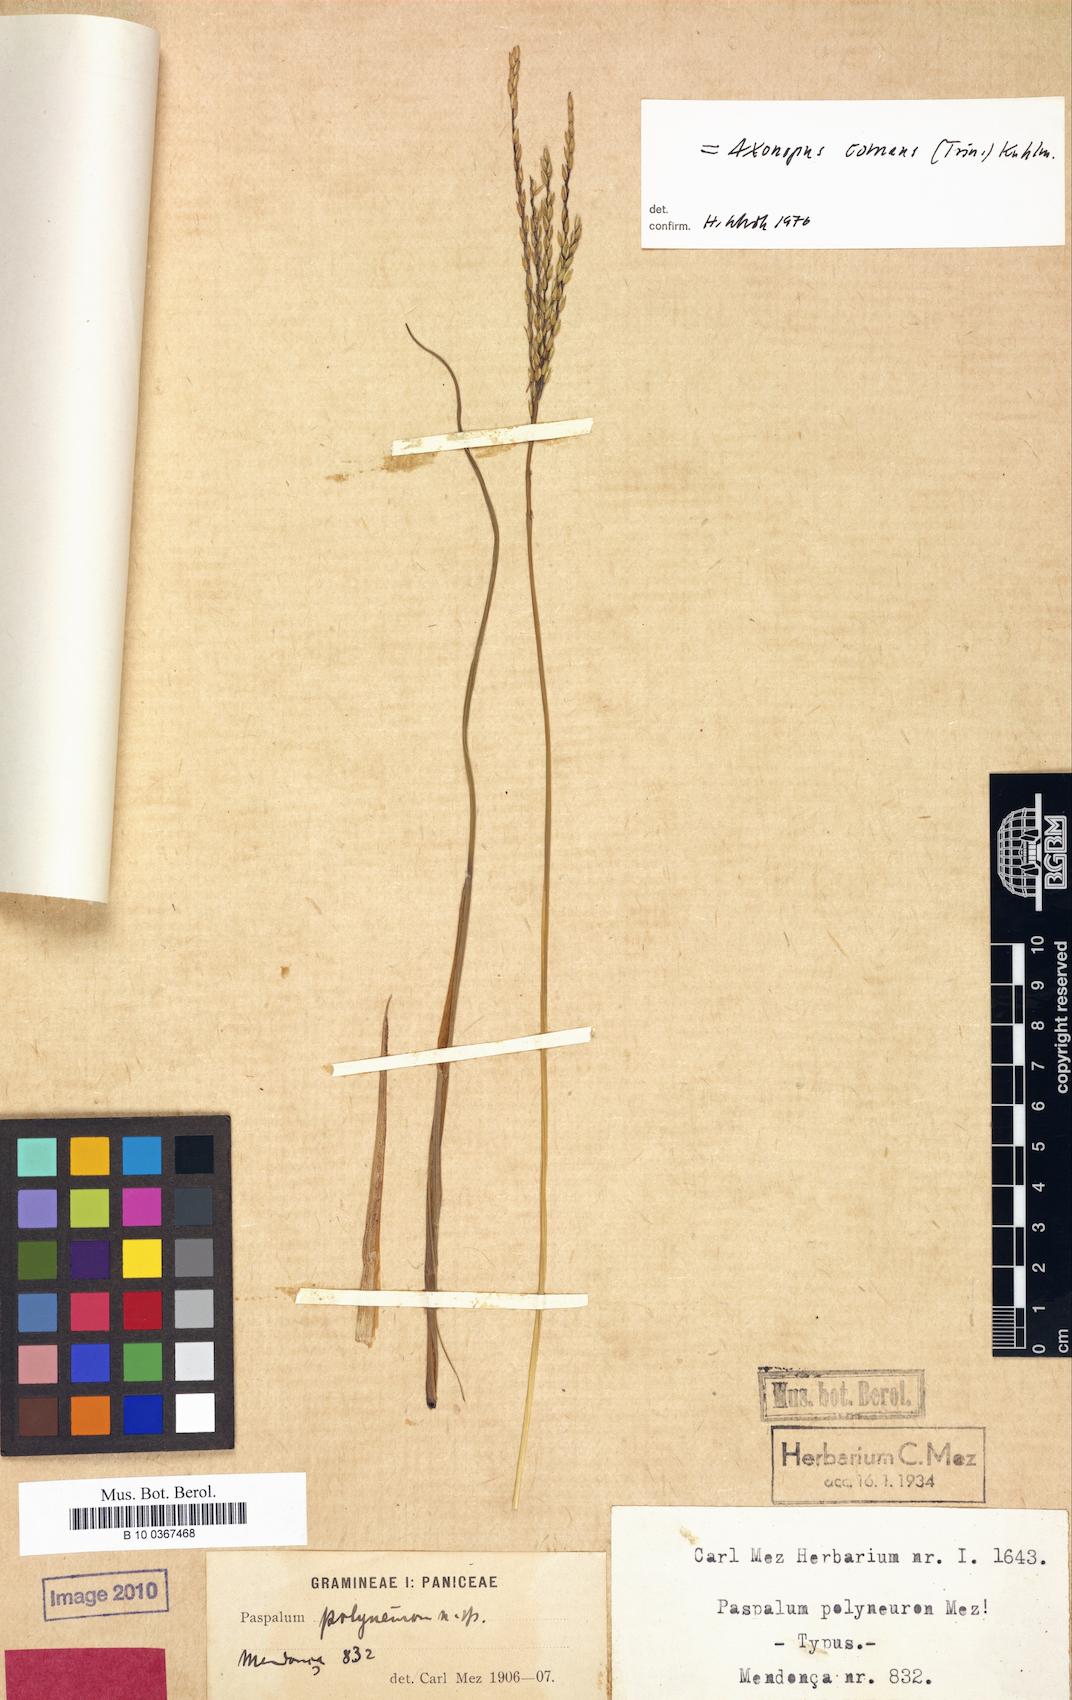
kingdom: Plantae
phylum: Tracheophyta
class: Liliopsida
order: Poales
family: Poaceae
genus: Axonopus
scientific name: Axonopus siccus
